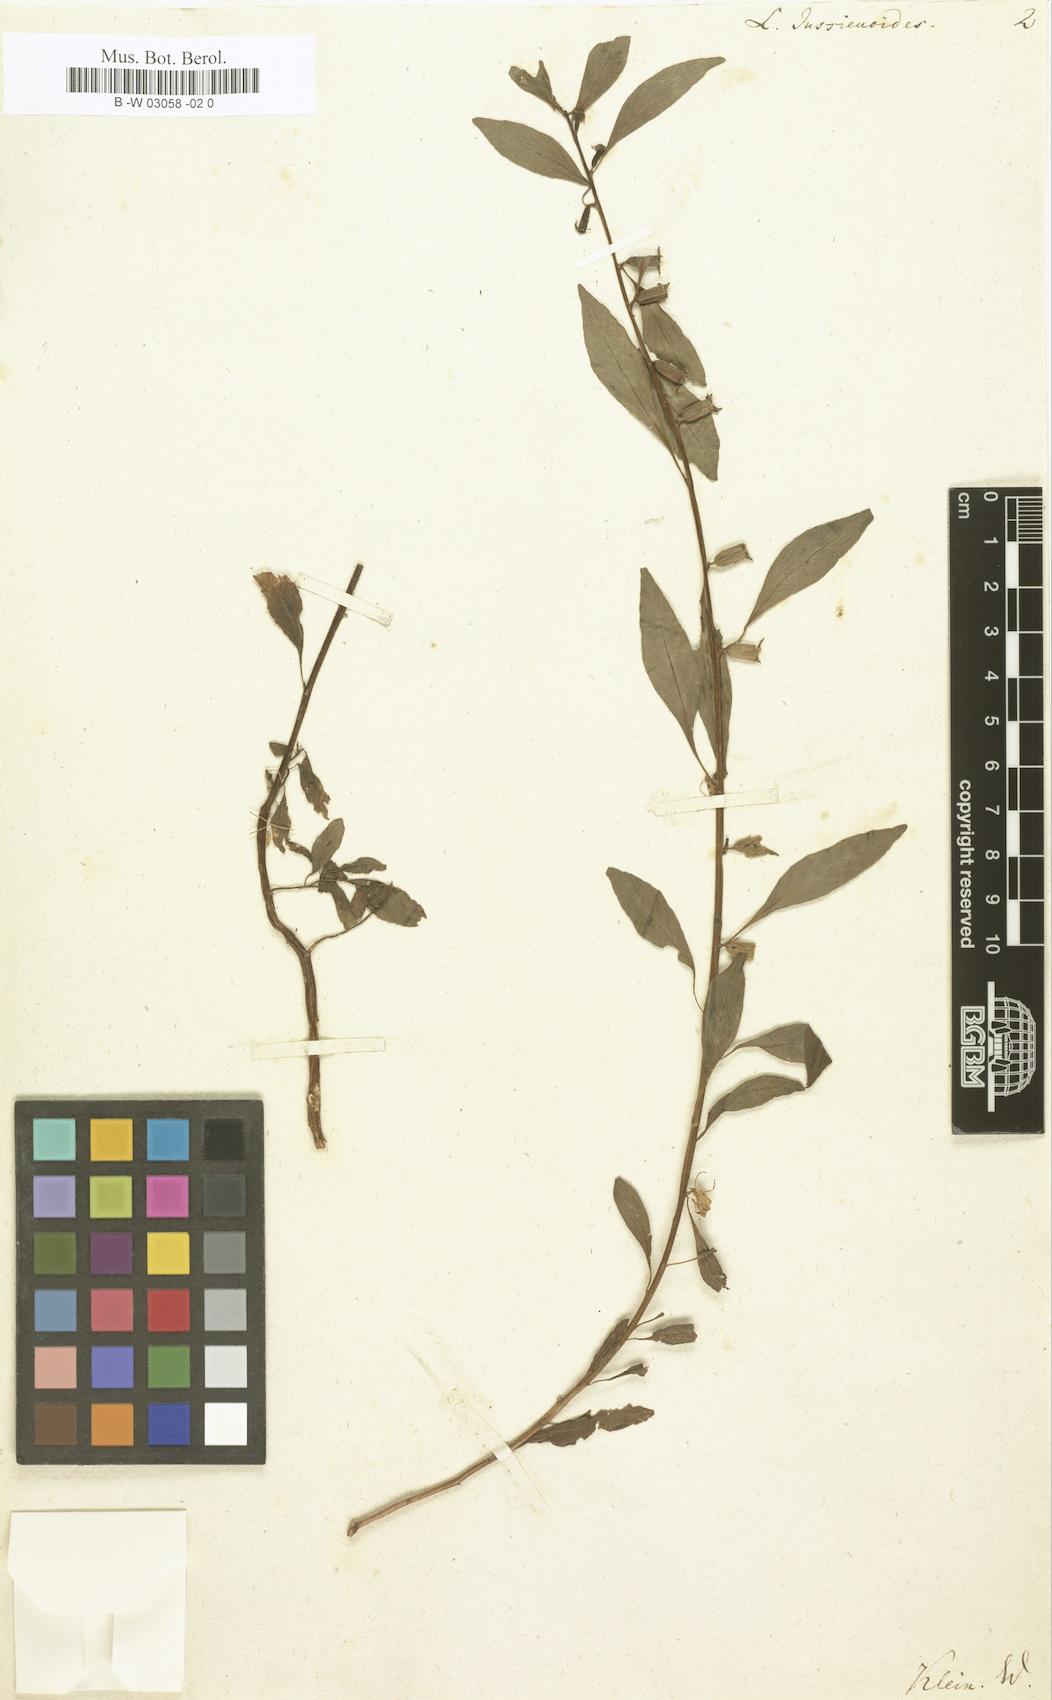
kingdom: Plantae
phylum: Tracheophyta
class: Magnoliopsida
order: Myrtales
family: Onagraceae
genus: Ludwigia
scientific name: Ludwigia jussiaeoides
